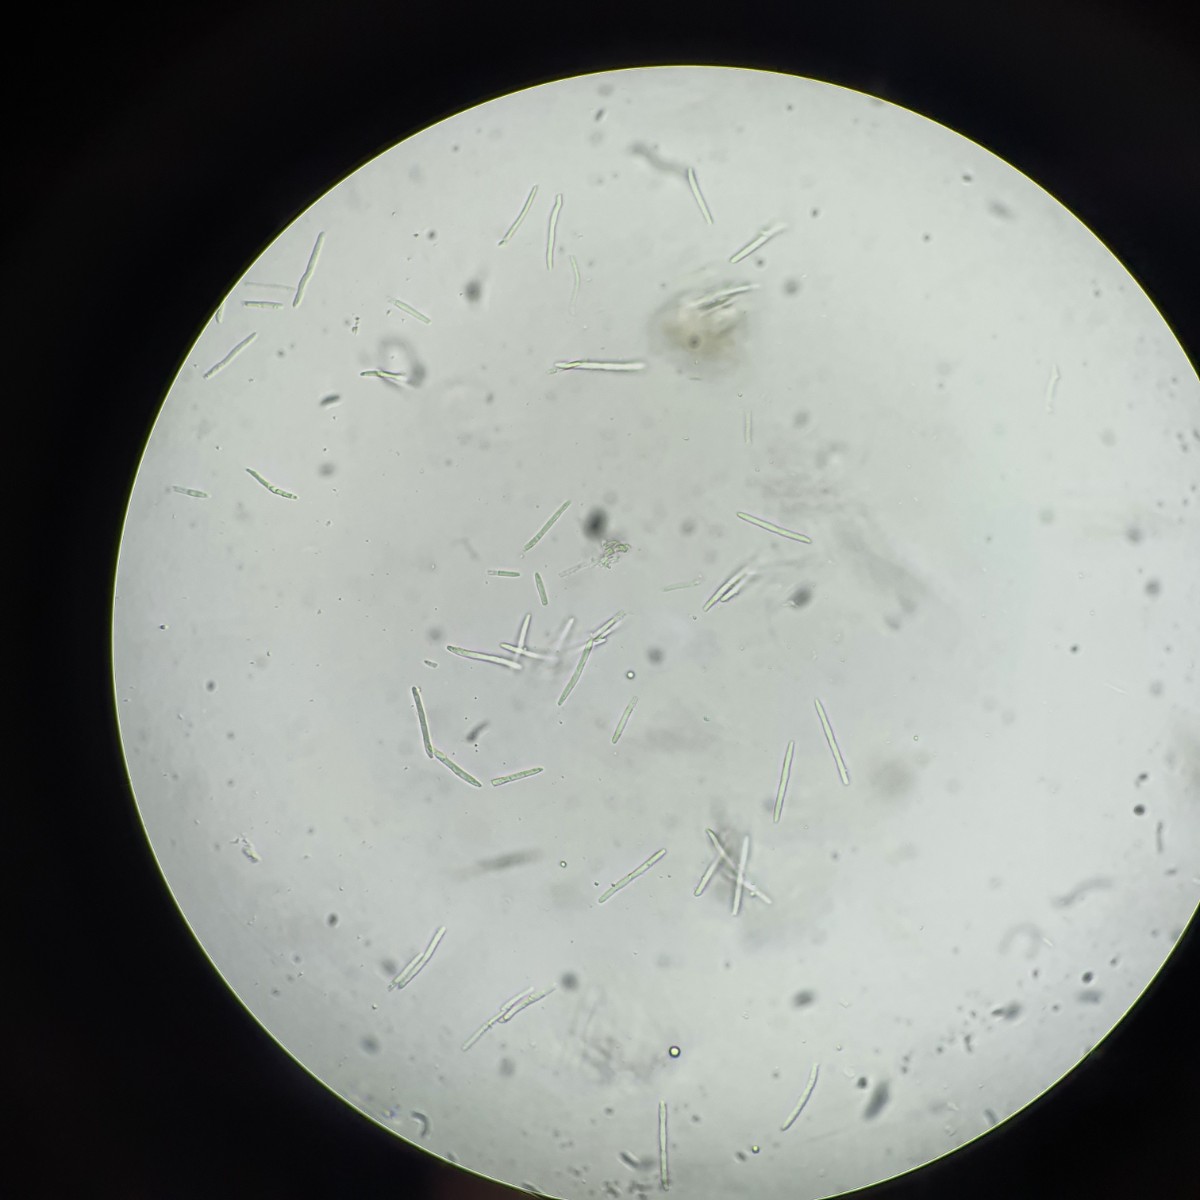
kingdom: Fungi
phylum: Ascomycota
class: Dothideomycetes
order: Capnodiales
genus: Septocyta
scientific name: Septocyta ruborum
